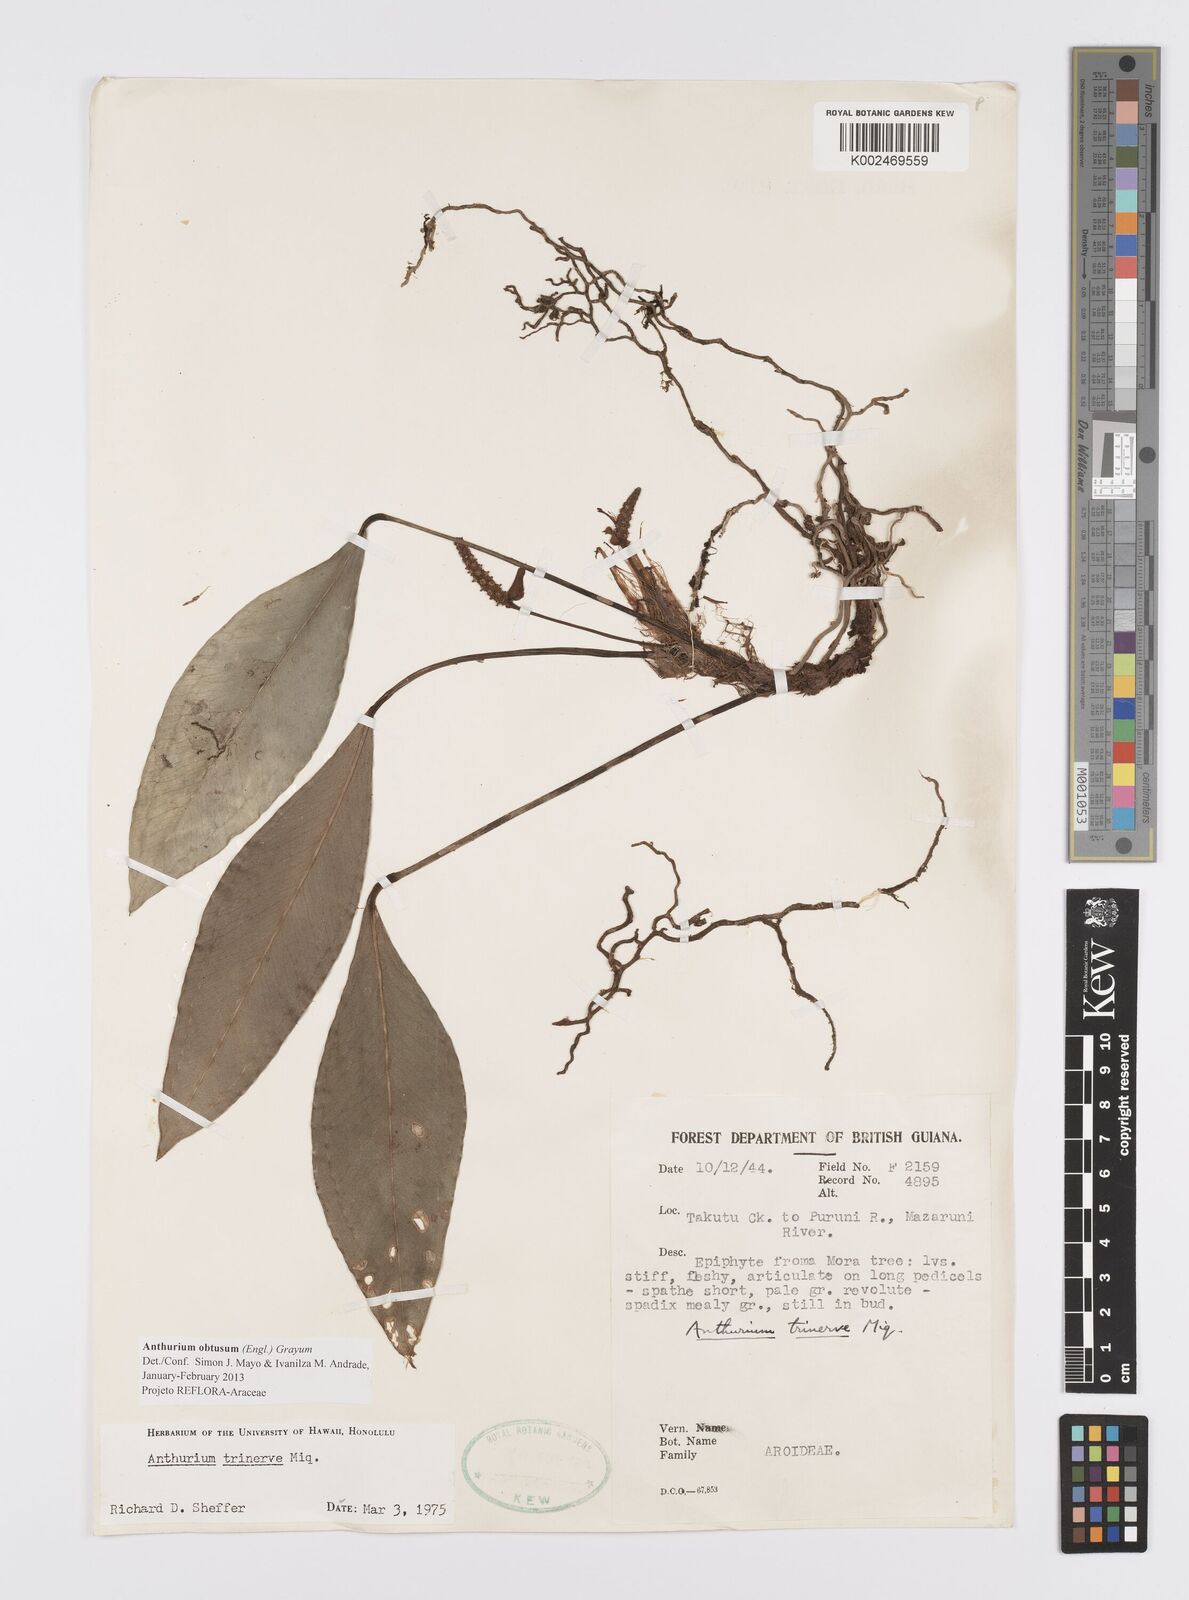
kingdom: Plantae
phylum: Tracheophyta
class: Liliopsida
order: Alismatales
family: Araceae
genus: Anthurium
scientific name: Anthurium obtusum
